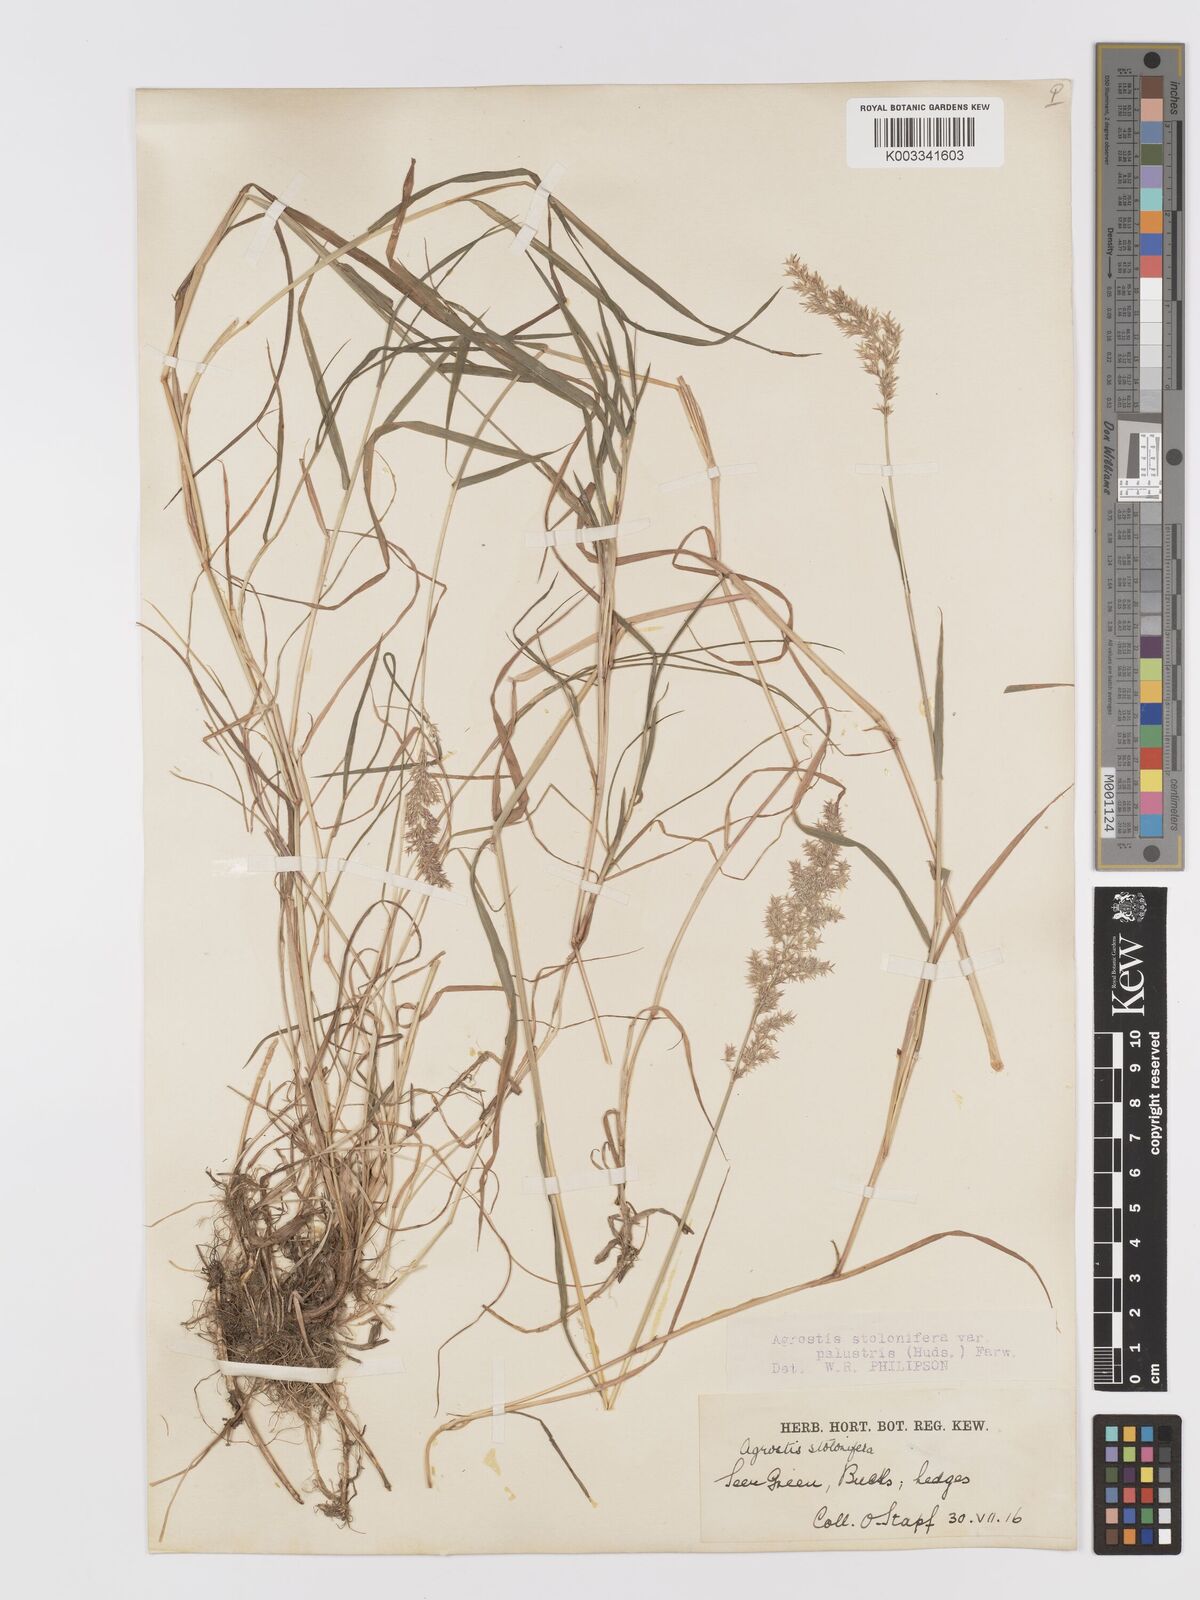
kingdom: Plantae
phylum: Tracheophyta
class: Liliopsida
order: Poales
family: Poaceae
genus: Agrostis
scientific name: Agrostis stolonifera
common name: Creeping bentgrass
